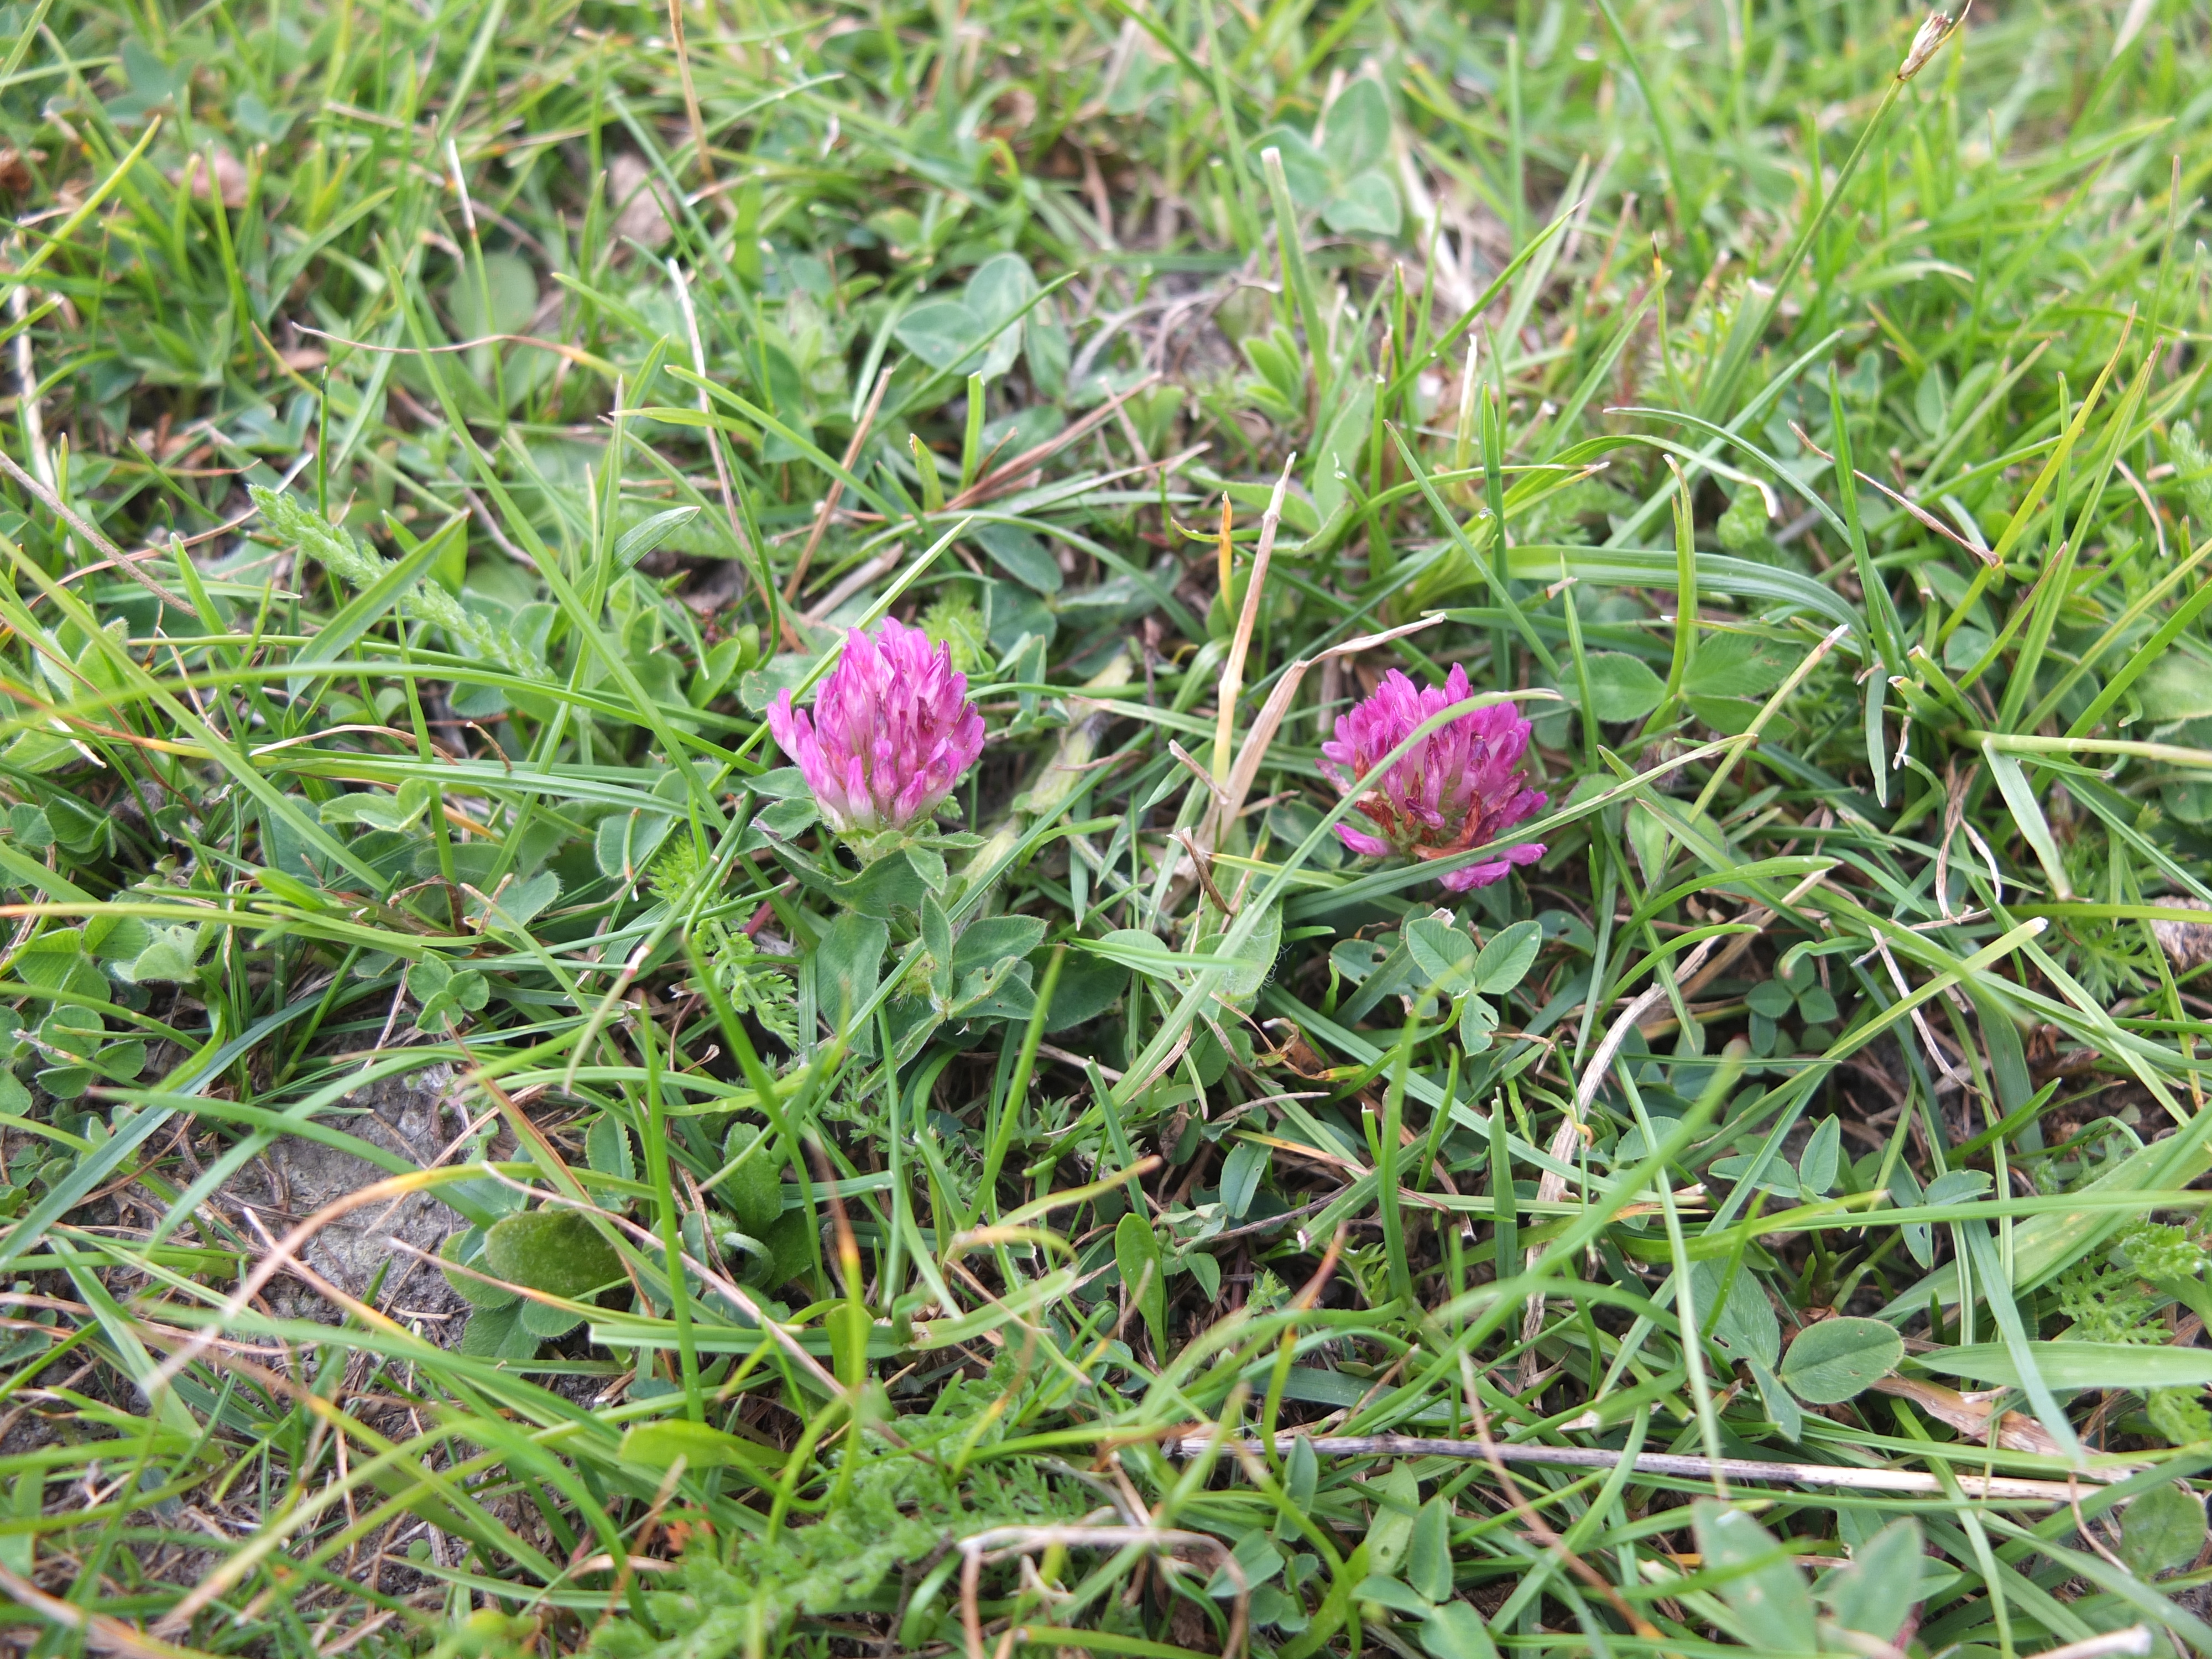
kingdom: Plantae
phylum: Tracheophyta
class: Magnoliopsida
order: Fabales
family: Fabaceae
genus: Trifolium
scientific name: Trifolium pratense
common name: Rød-kløver
